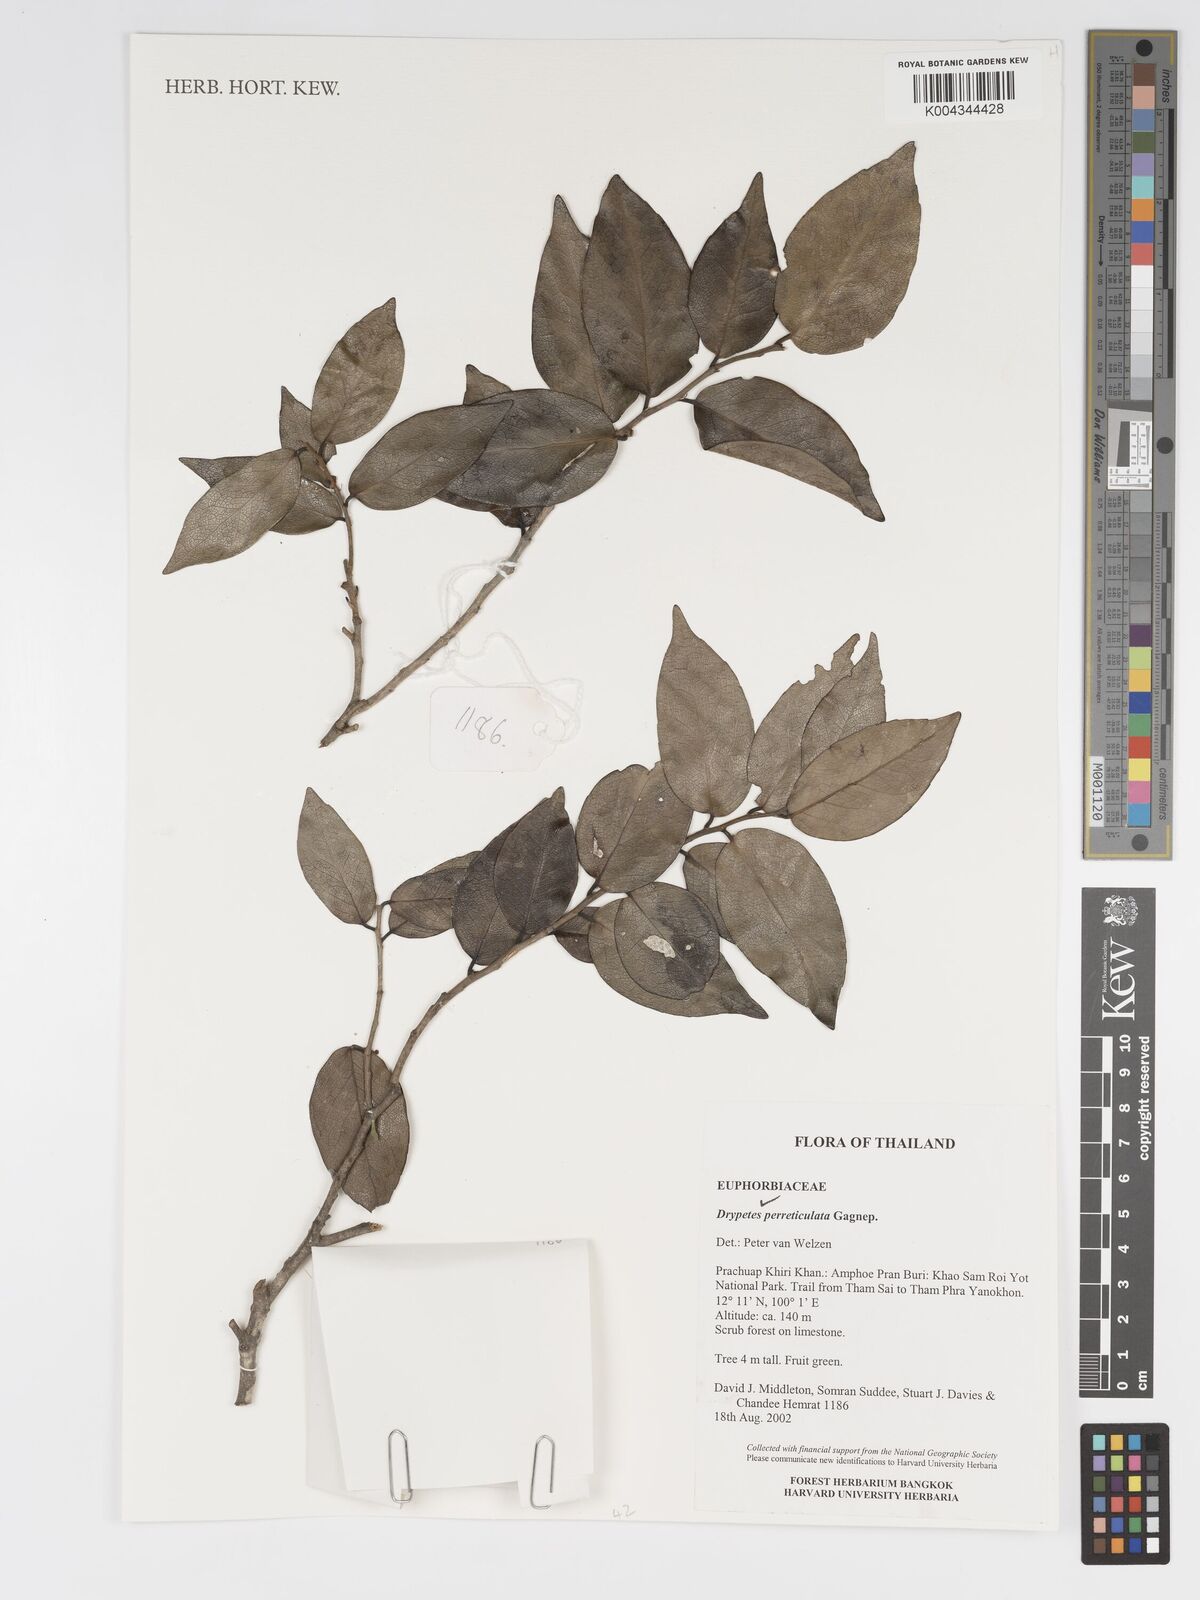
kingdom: Plantae
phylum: Tracheophyta
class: Magnoliopsida
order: Malpighiales
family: Putranjivaceae
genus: Drypetes
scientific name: Drypetes perreticulata
